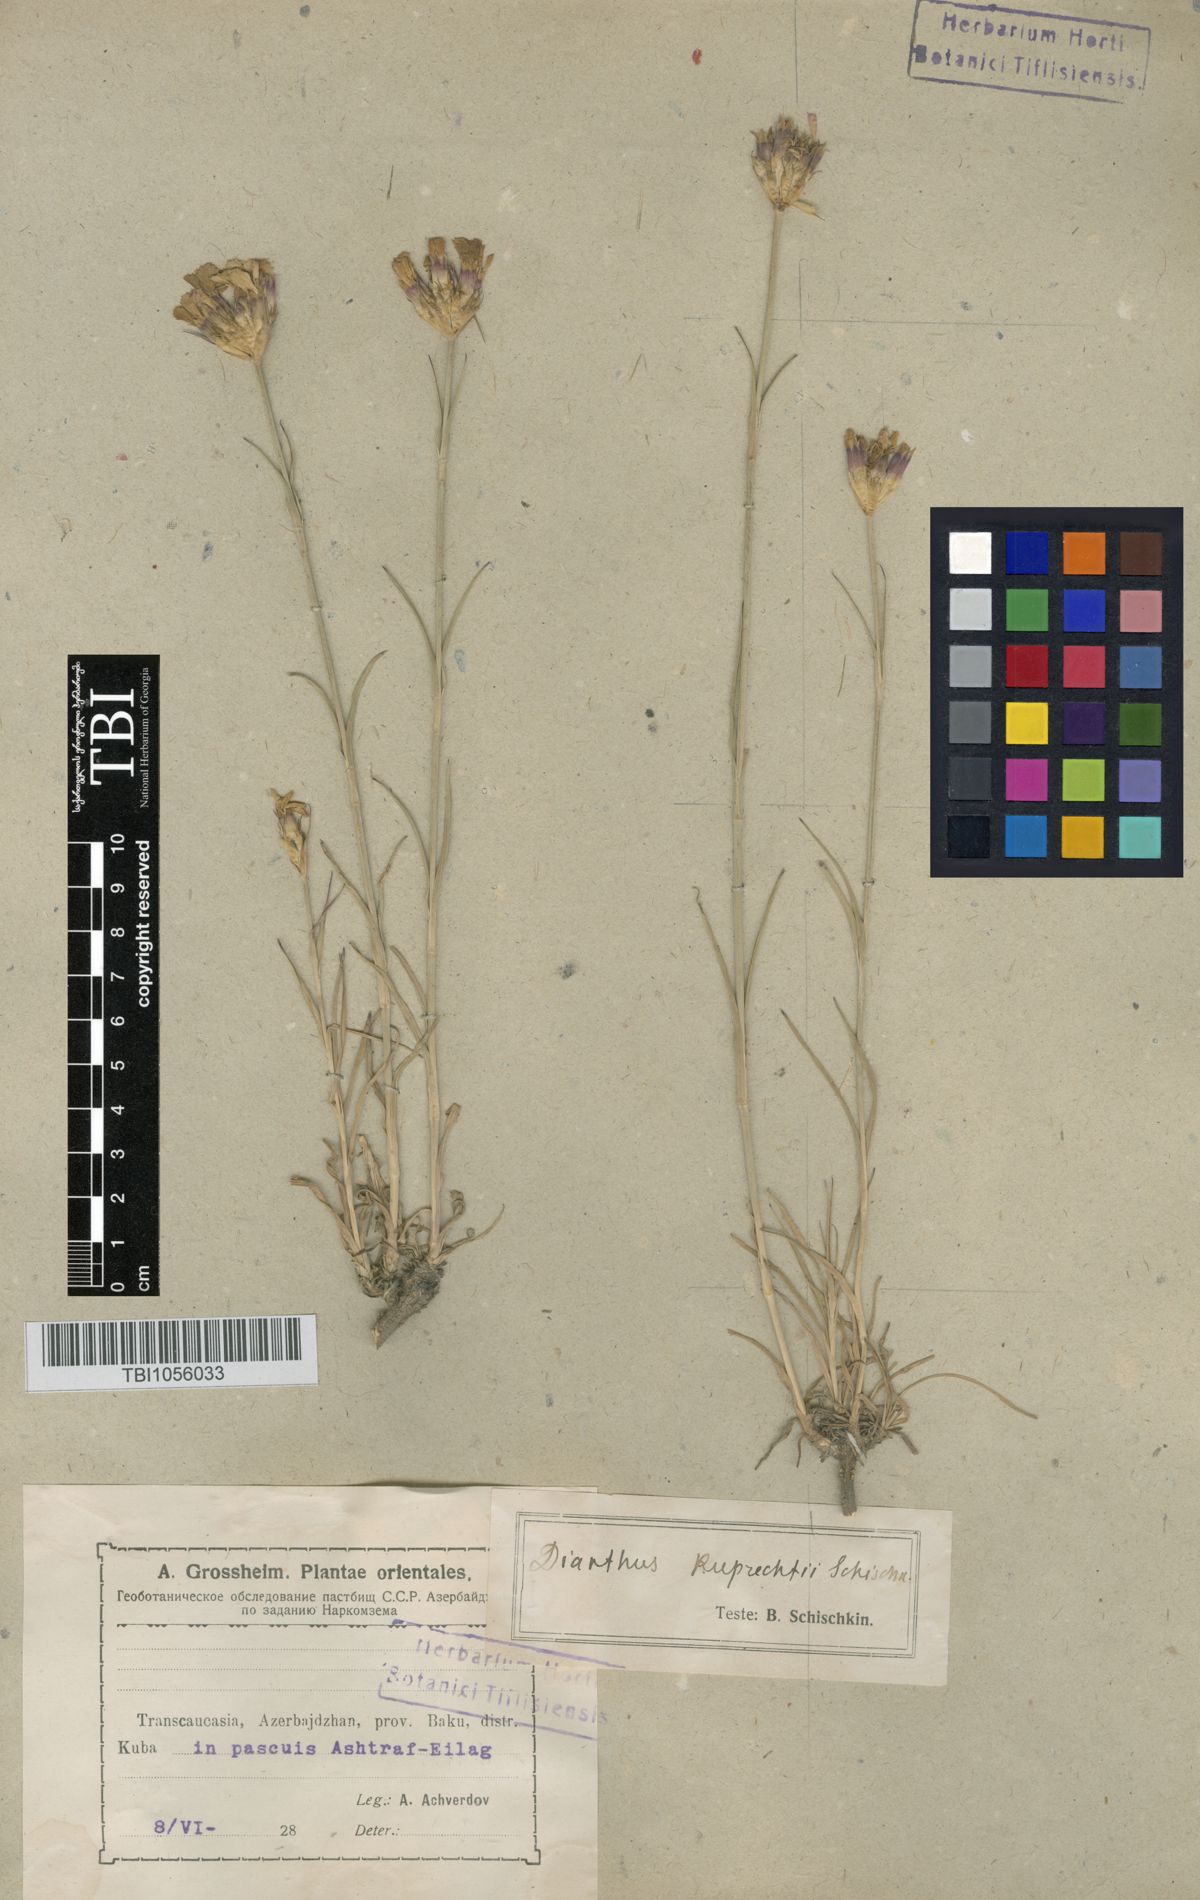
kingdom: Plantae
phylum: Tracheophyta
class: Magnoliopsida
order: Caryophyllales
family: Caryophyllaceae
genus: Dianthus
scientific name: Dianthus ruprechtii
